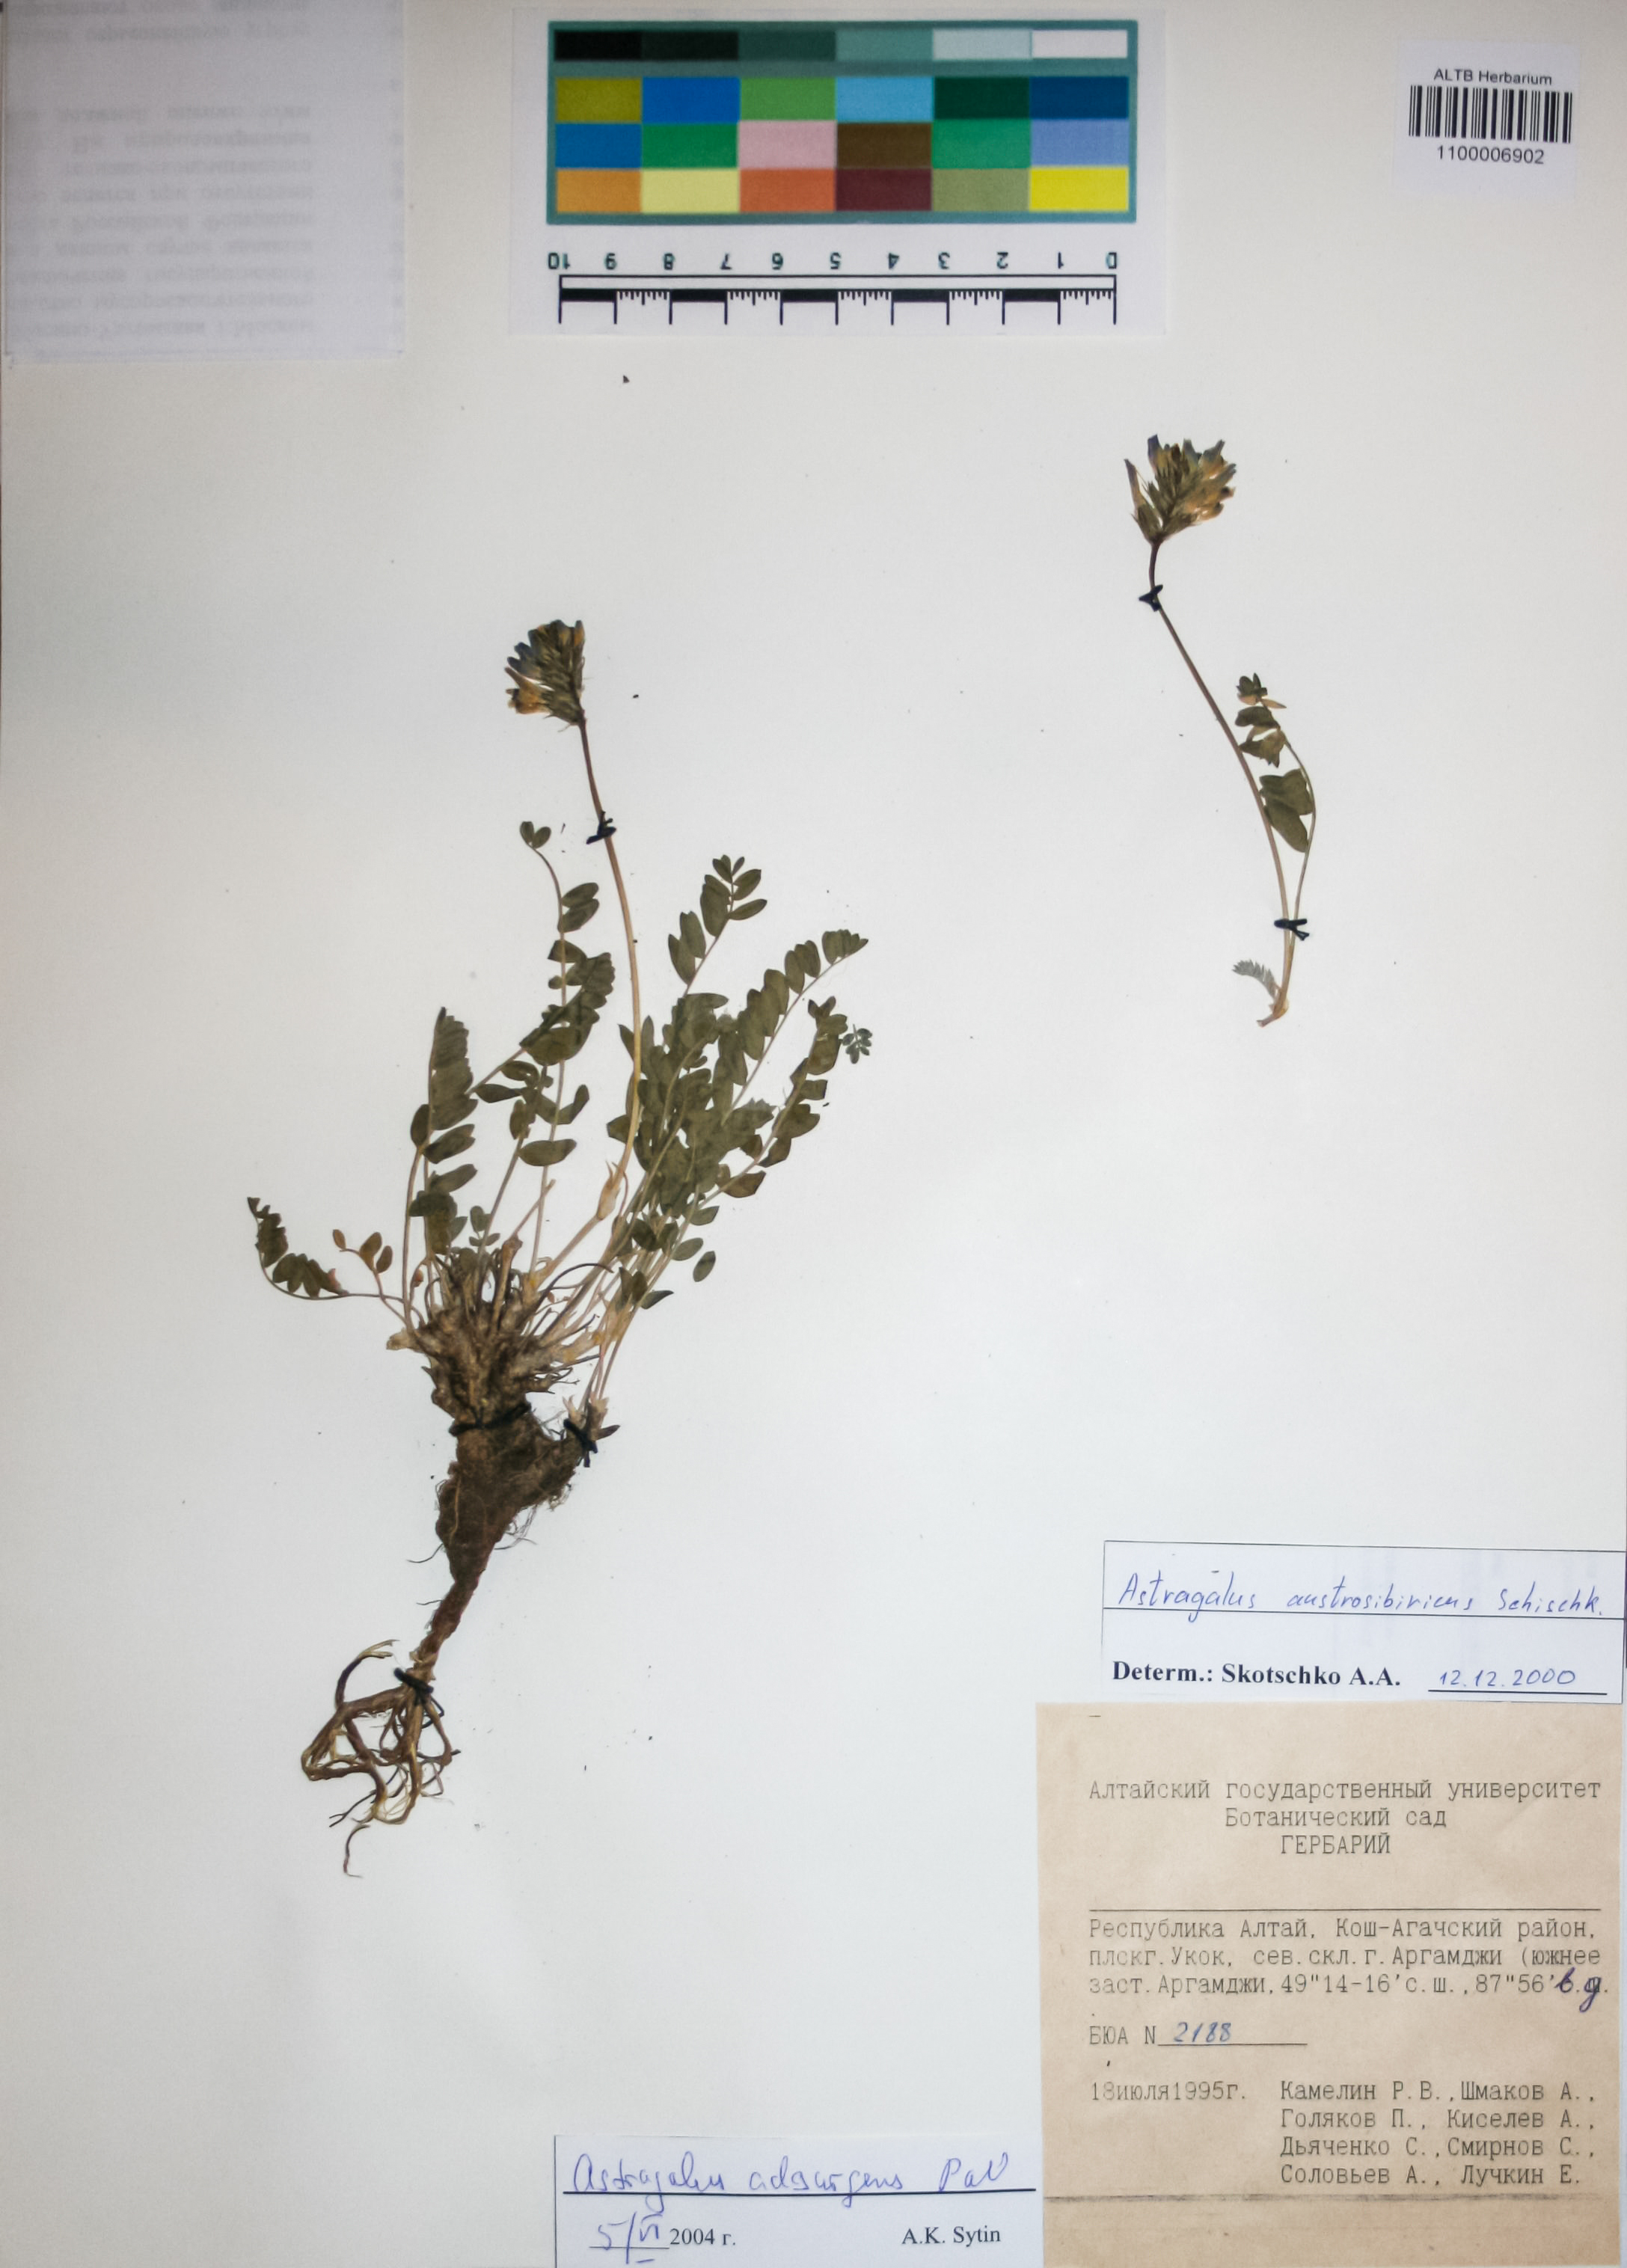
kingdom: Plantae
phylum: Tracheophyta
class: Magnoliopsida
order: Fabales
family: Fabaceae
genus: Astragalus
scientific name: Astragalus laxmannii
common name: Laxmann's milk-vetch
